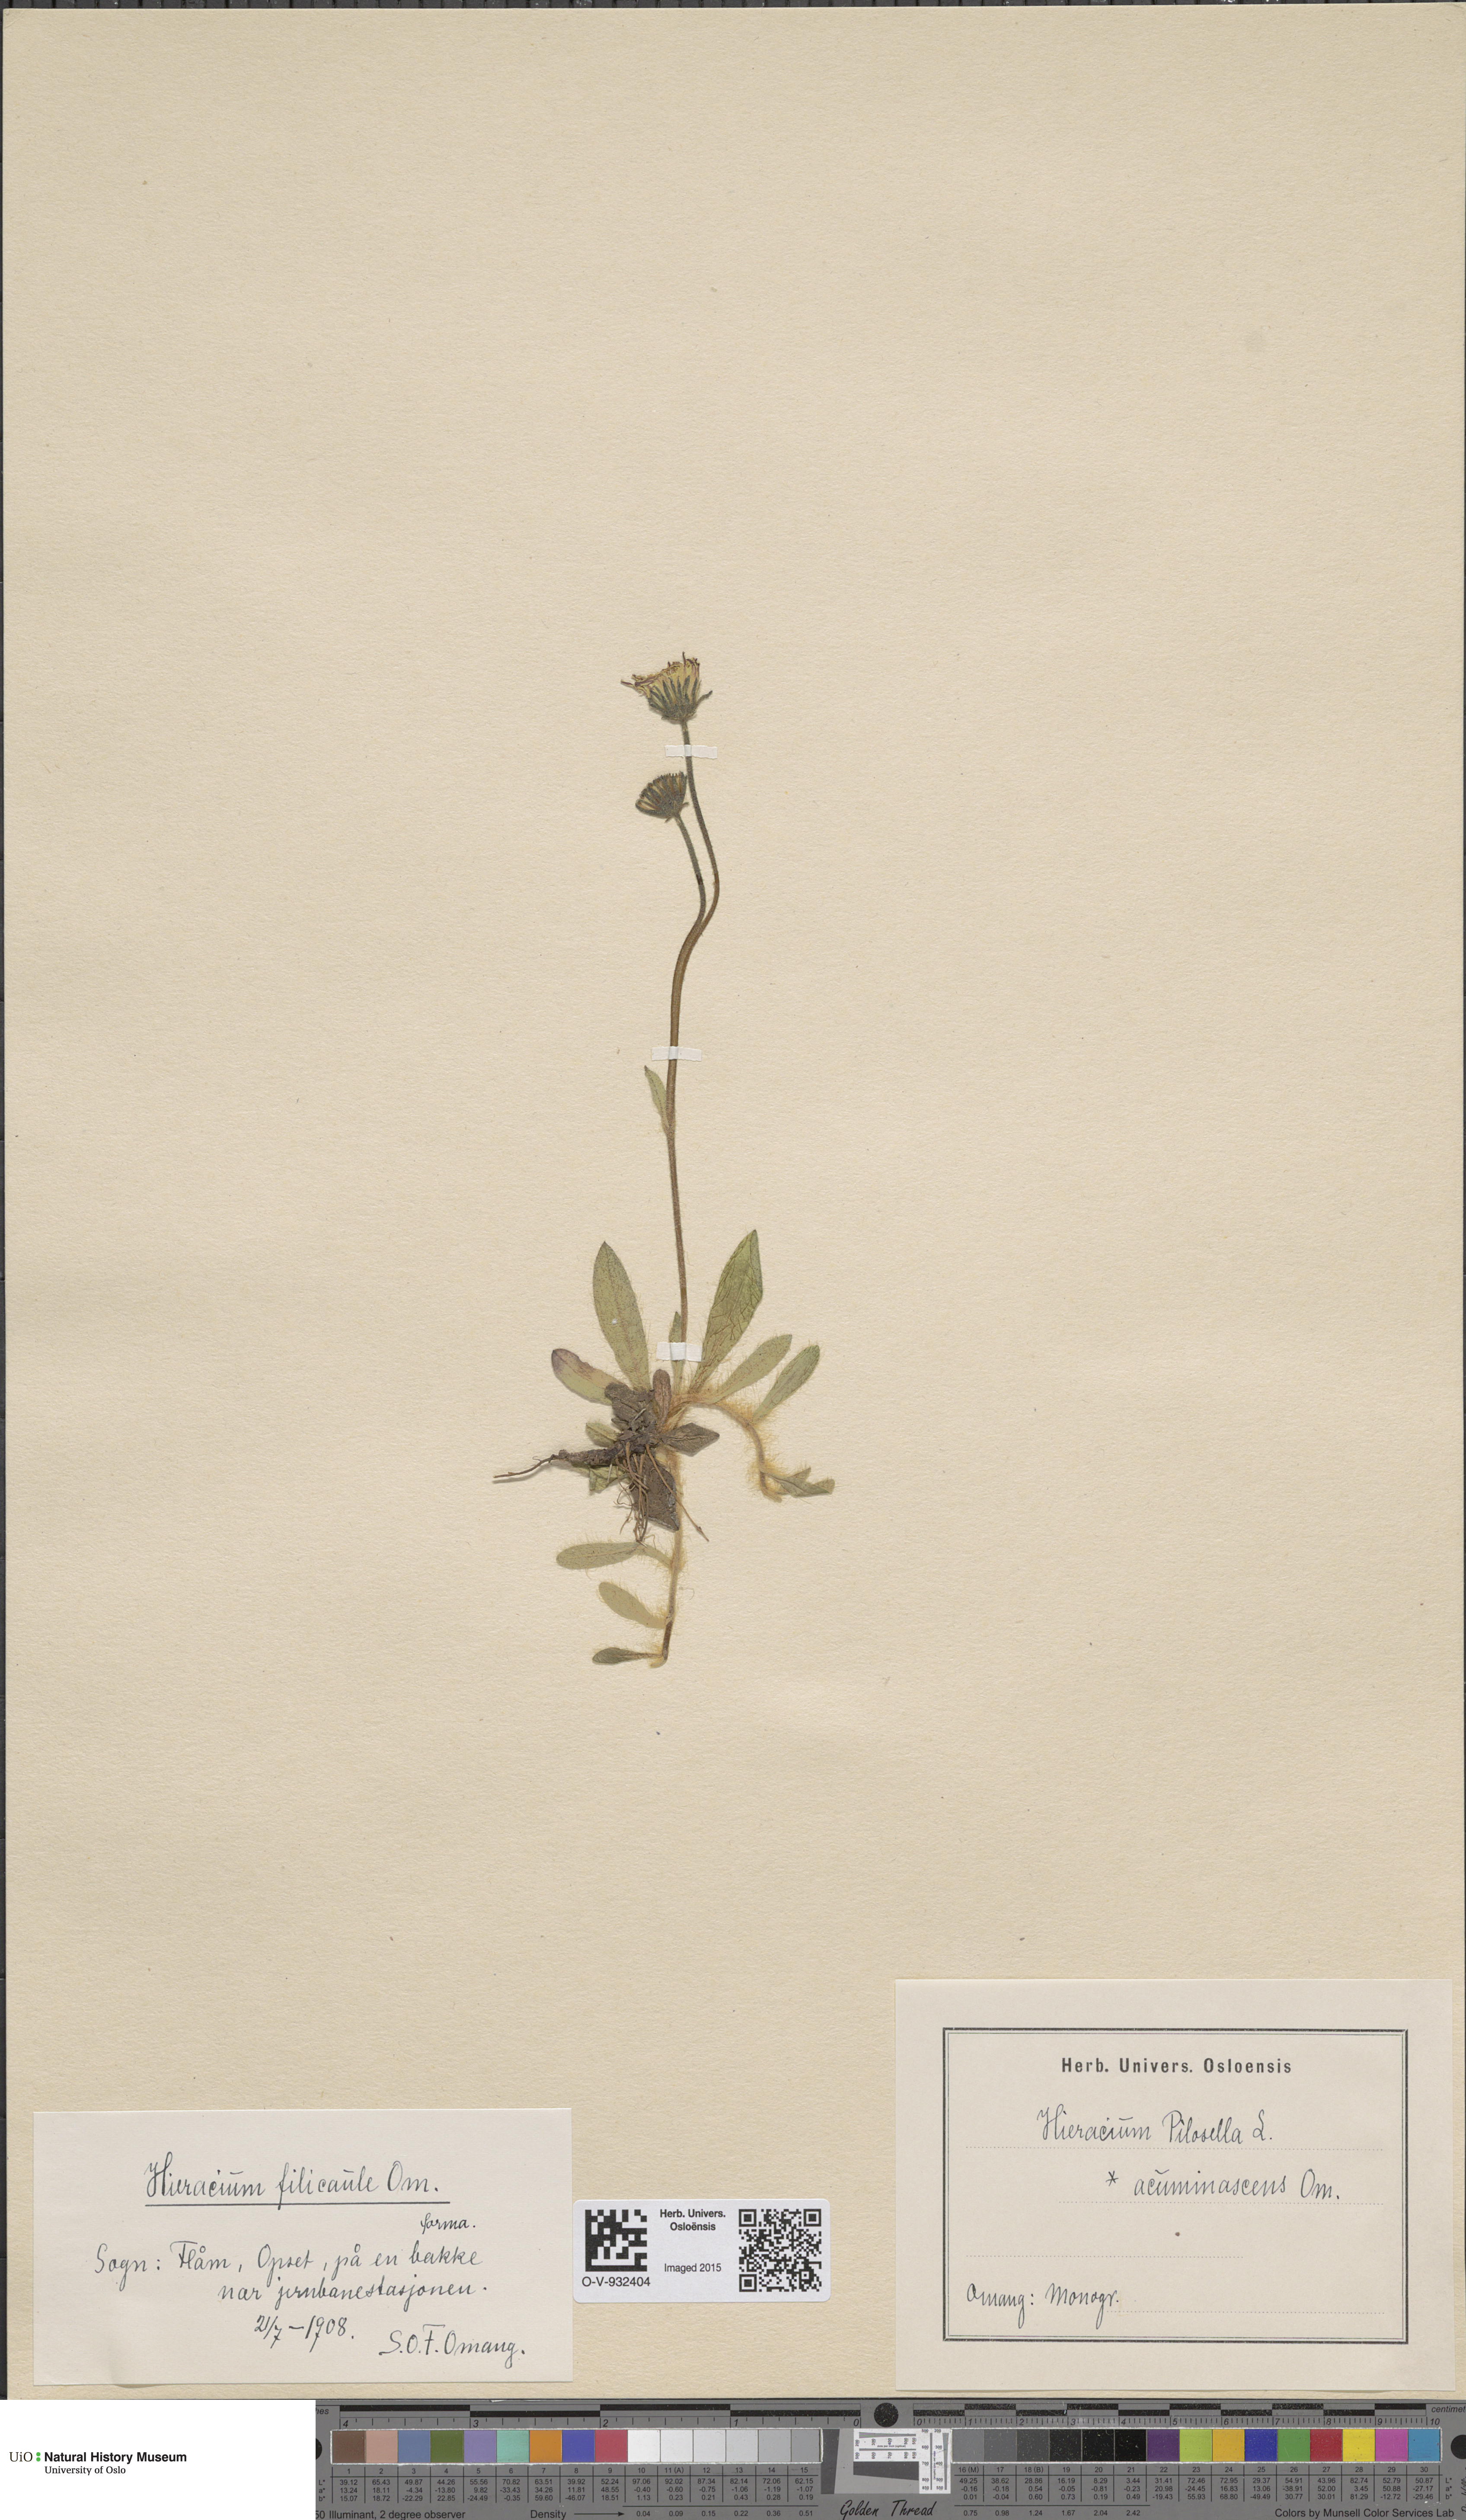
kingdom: Plantae
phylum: Tracheophyta
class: Magnoliopsida
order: Asterales
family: Asteraceae
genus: Pilosella
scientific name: Pilosella officinarum
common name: Mouse-ear hawkweed
